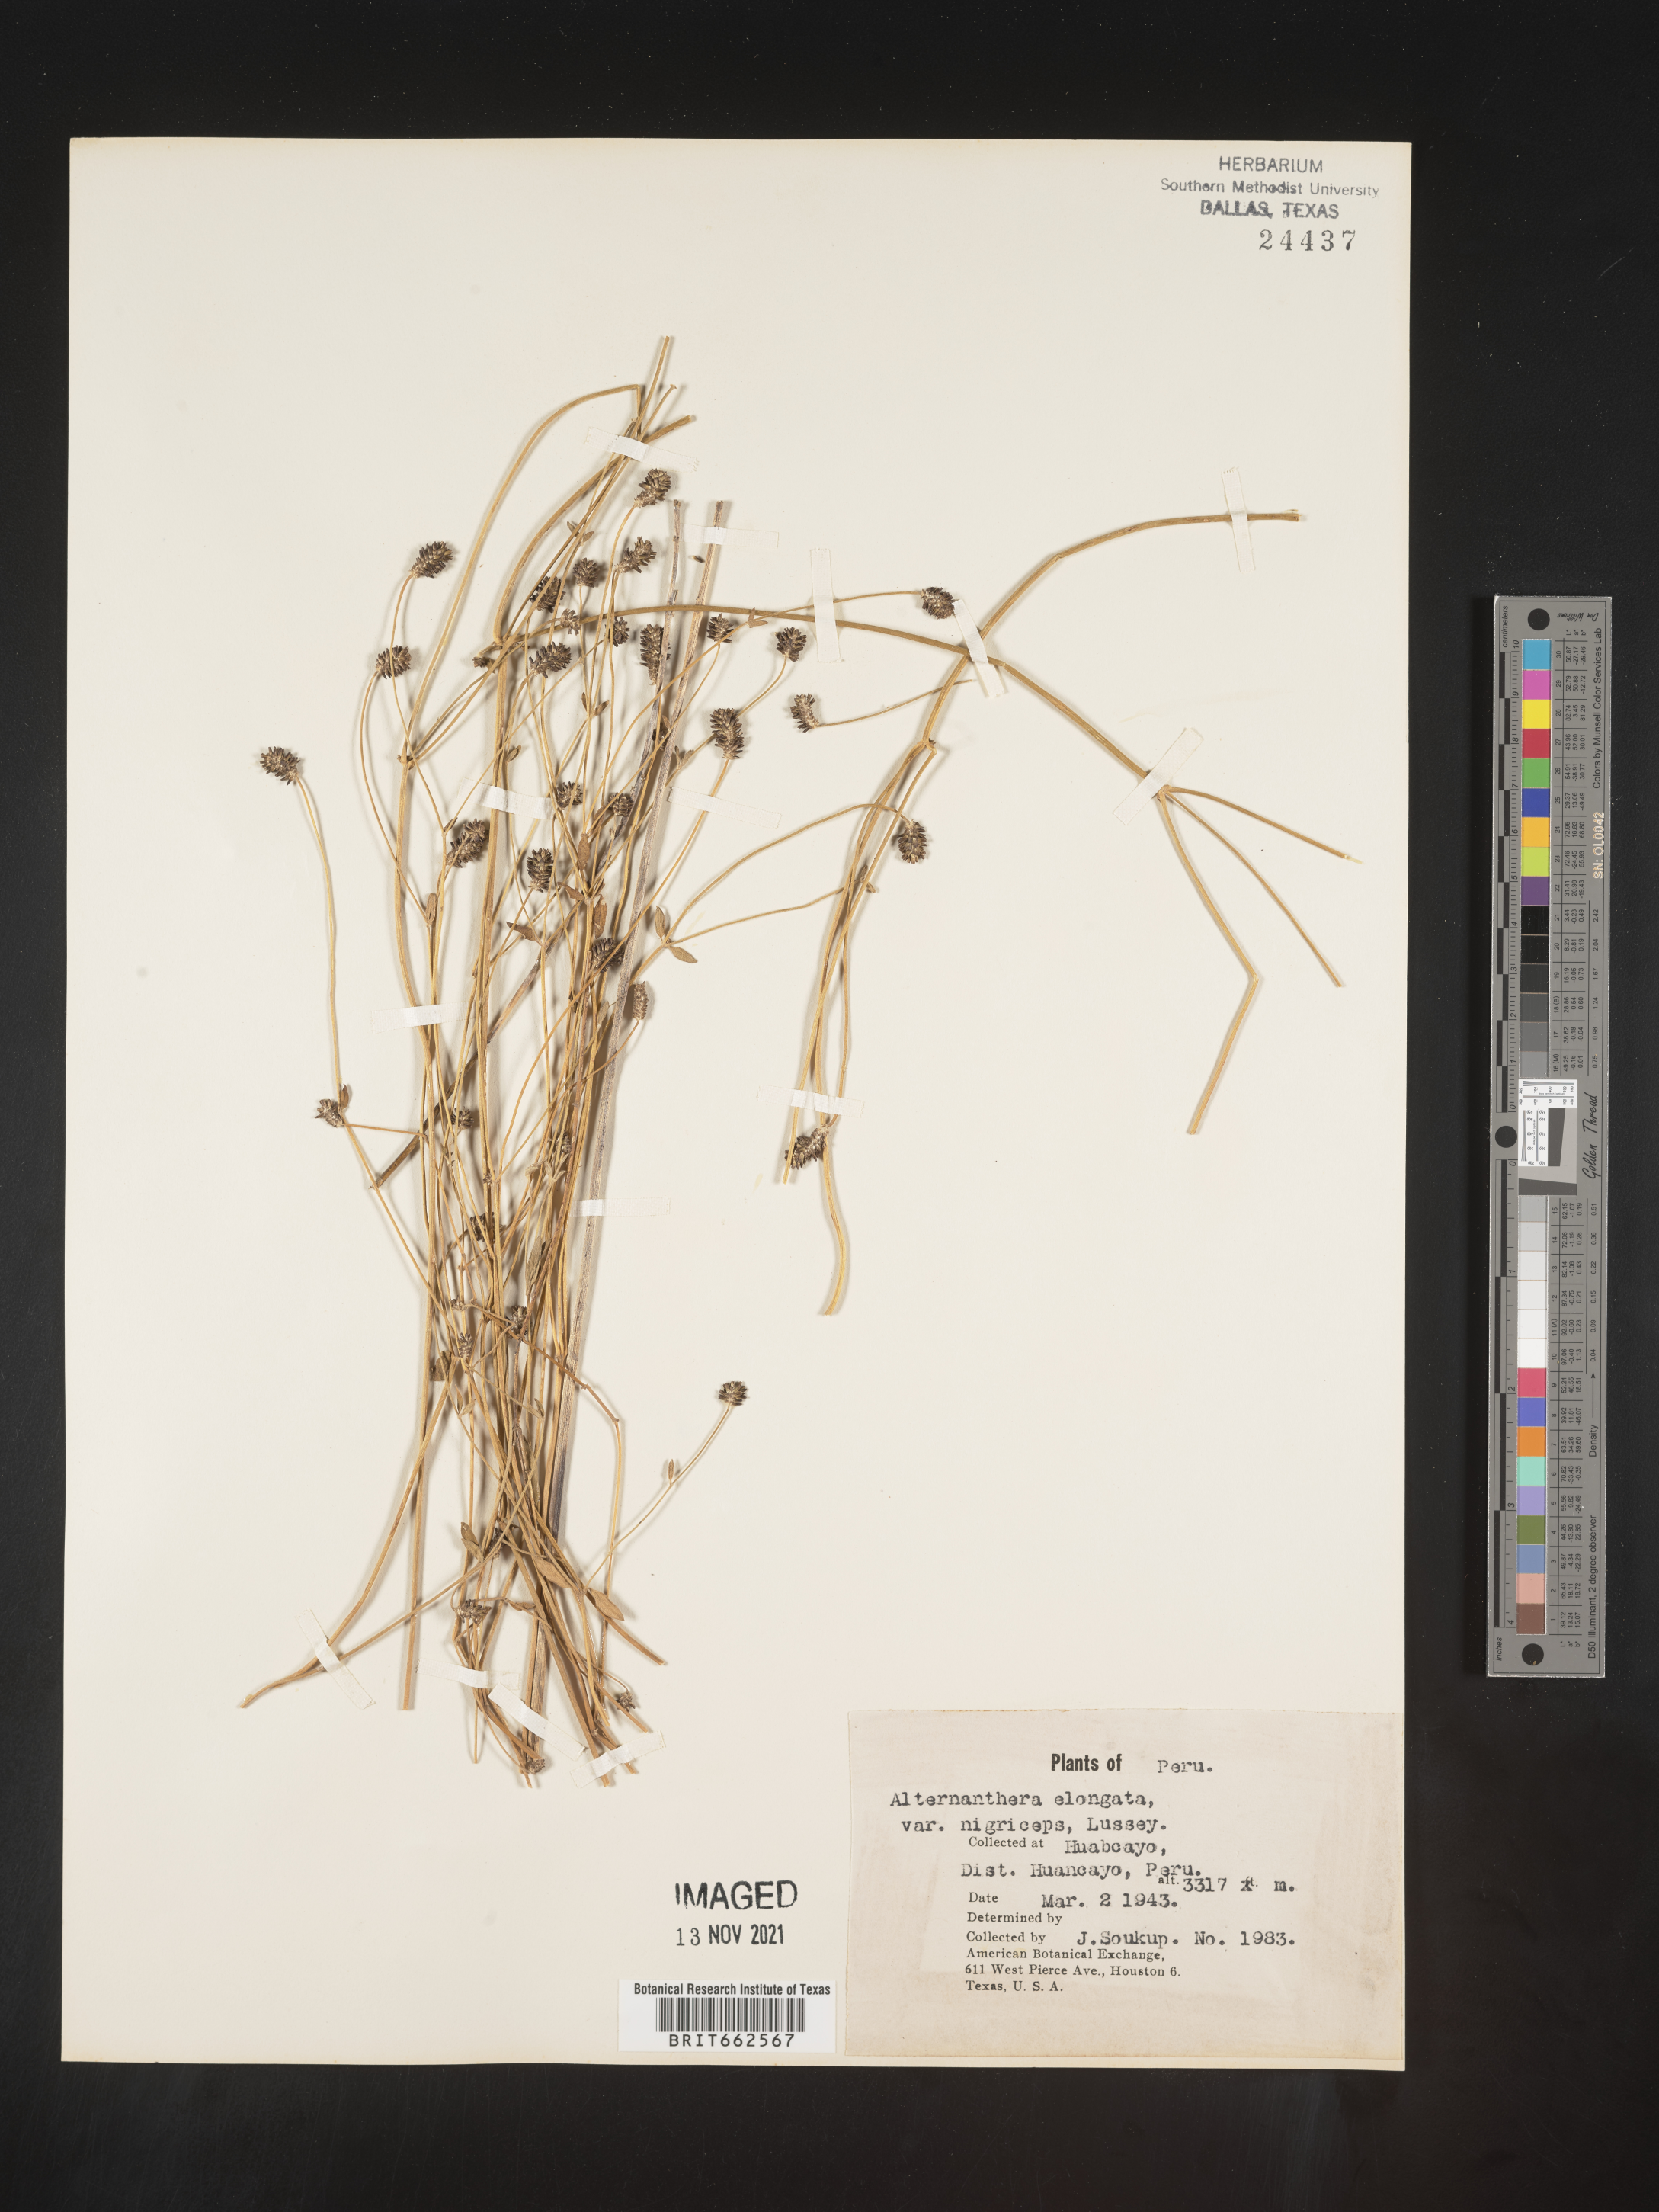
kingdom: Plantae
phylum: Tracheophyta
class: Magnoliopsida
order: Caryophyllales
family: Amaranthaceae
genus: Alternanthera
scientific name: Alternanthera
